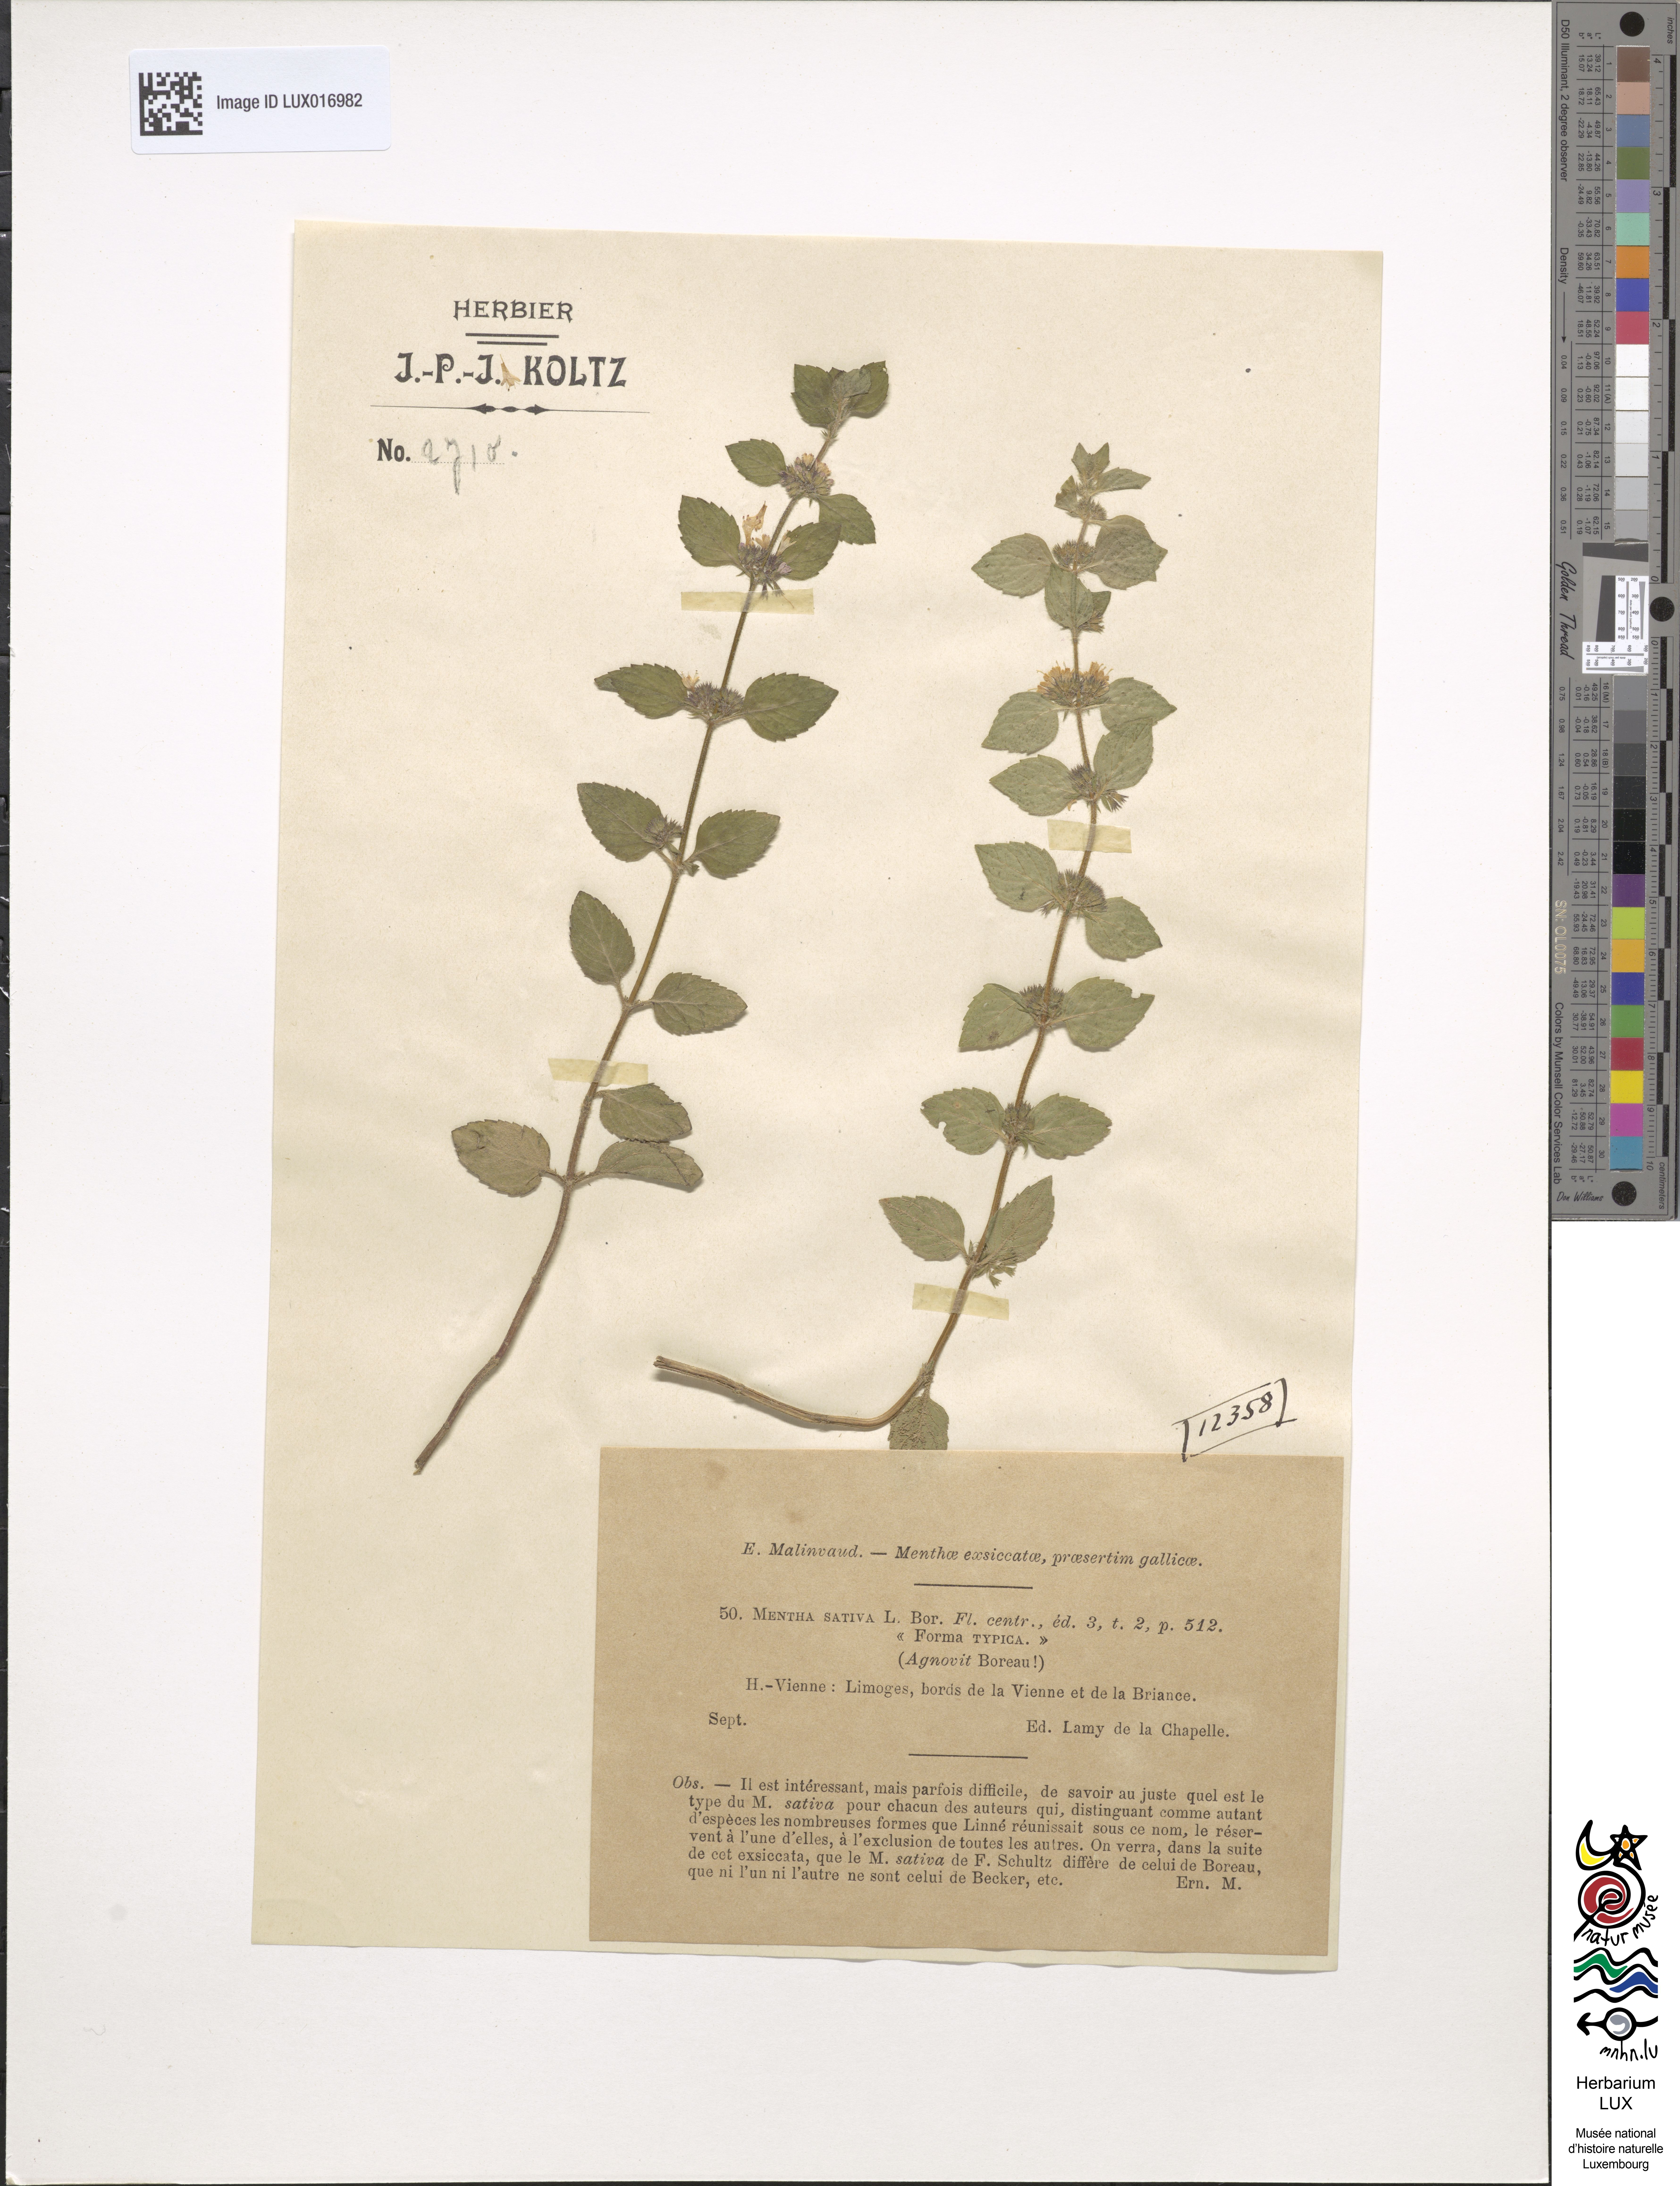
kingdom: Plantae
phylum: Tracheophyta
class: Magnoliopsida
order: Lamiales
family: Lamiaceae
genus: Mentha
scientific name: Mentha verticillata
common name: Mint
